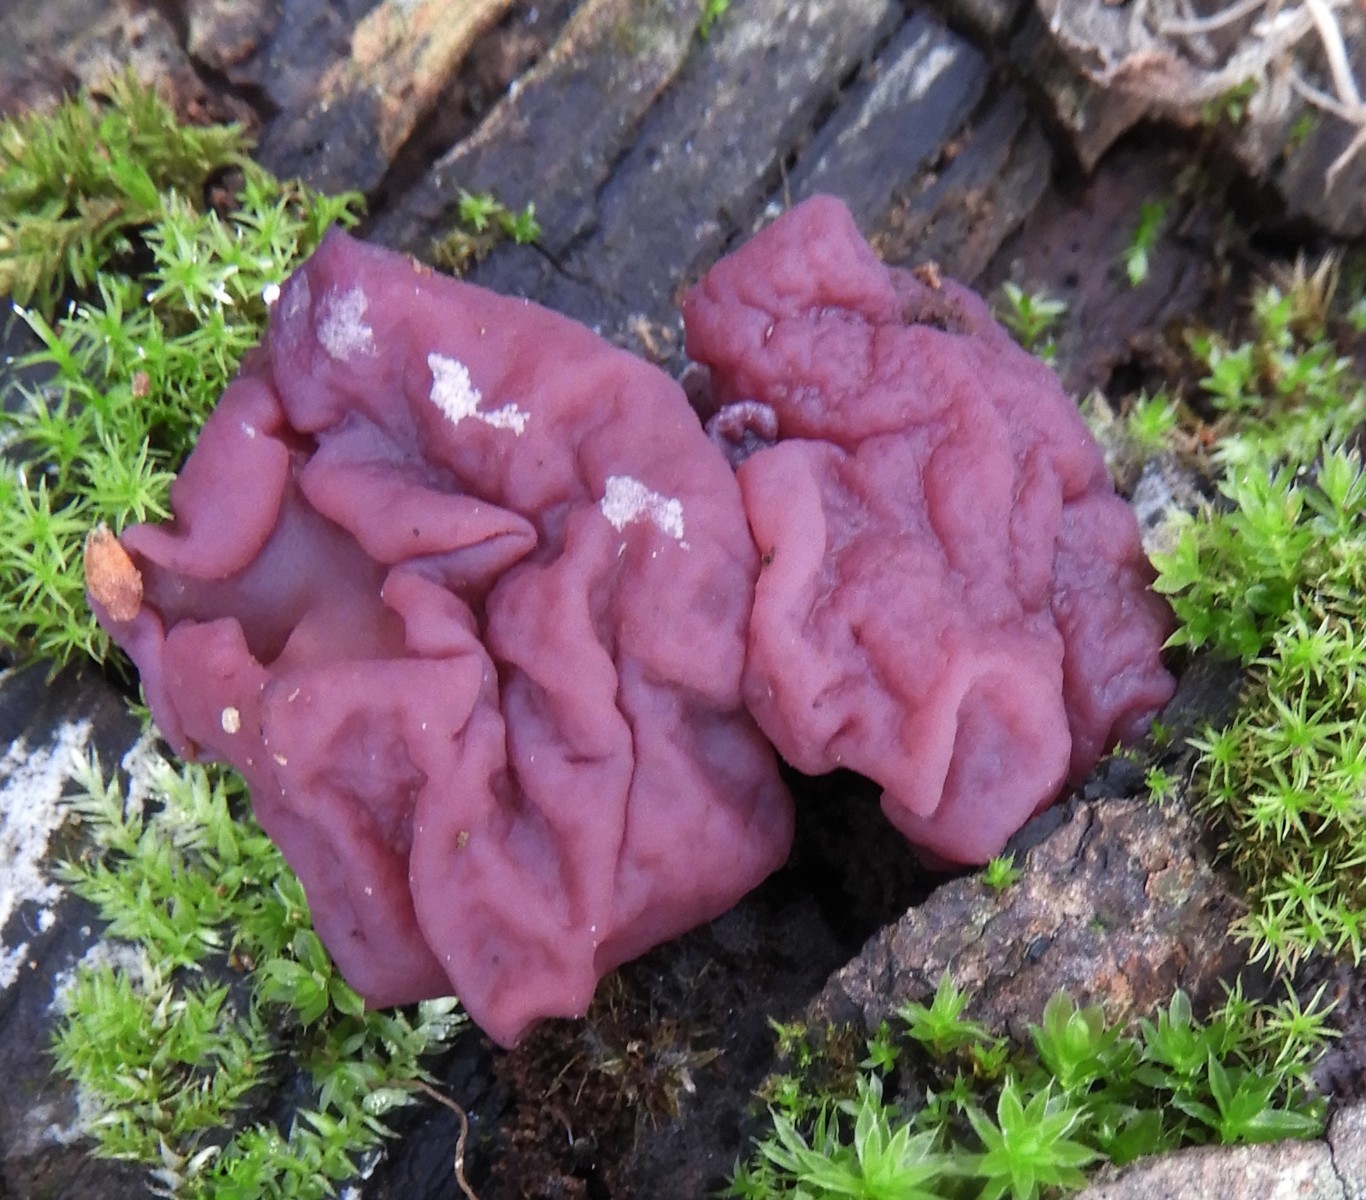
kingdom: Fungi
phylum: Ascomycota
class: Leotiomycetes
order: Helotiales
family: Gelatinodiscaceae
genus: Ascocoryne
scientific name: Ascocoryne cylichnium
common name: stor sejskive
